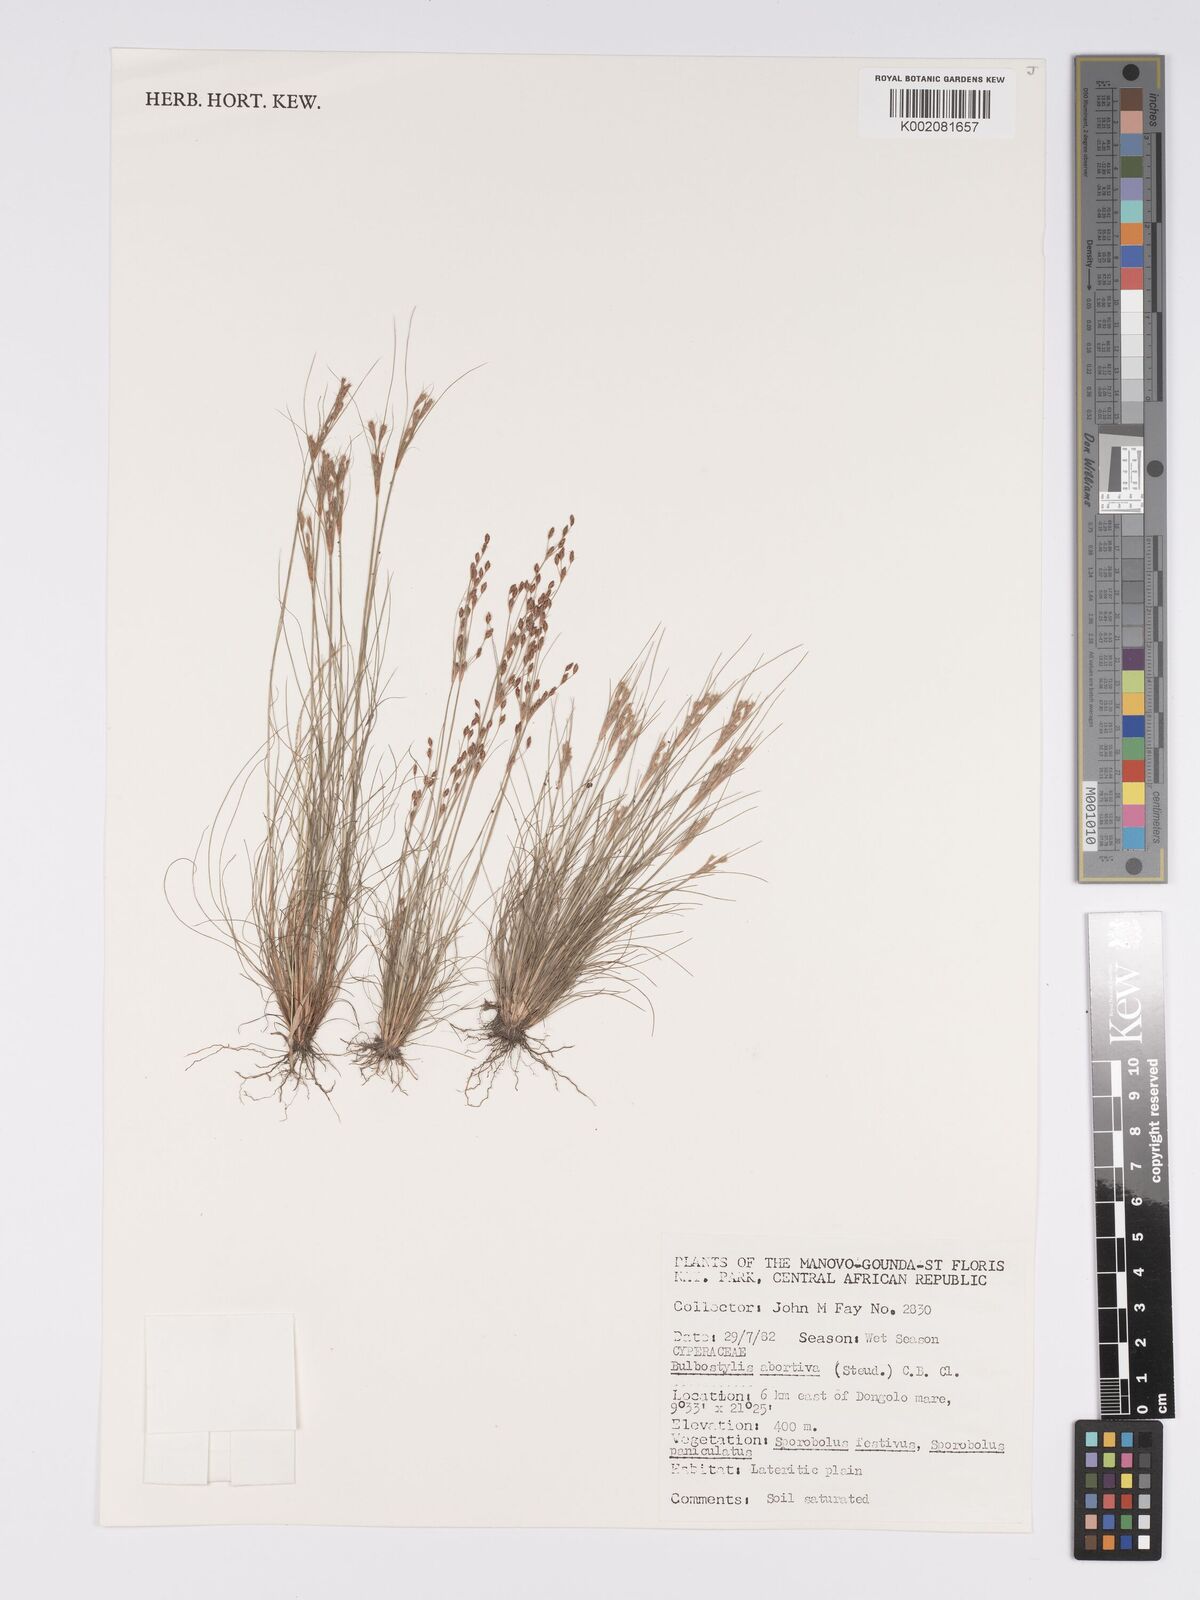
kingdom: Plantae
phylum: Tracheophyta
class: Liliopsida
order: Poales
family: Cyperaceae
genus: Bulbostylis
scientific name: Bulbostylis abortiva
